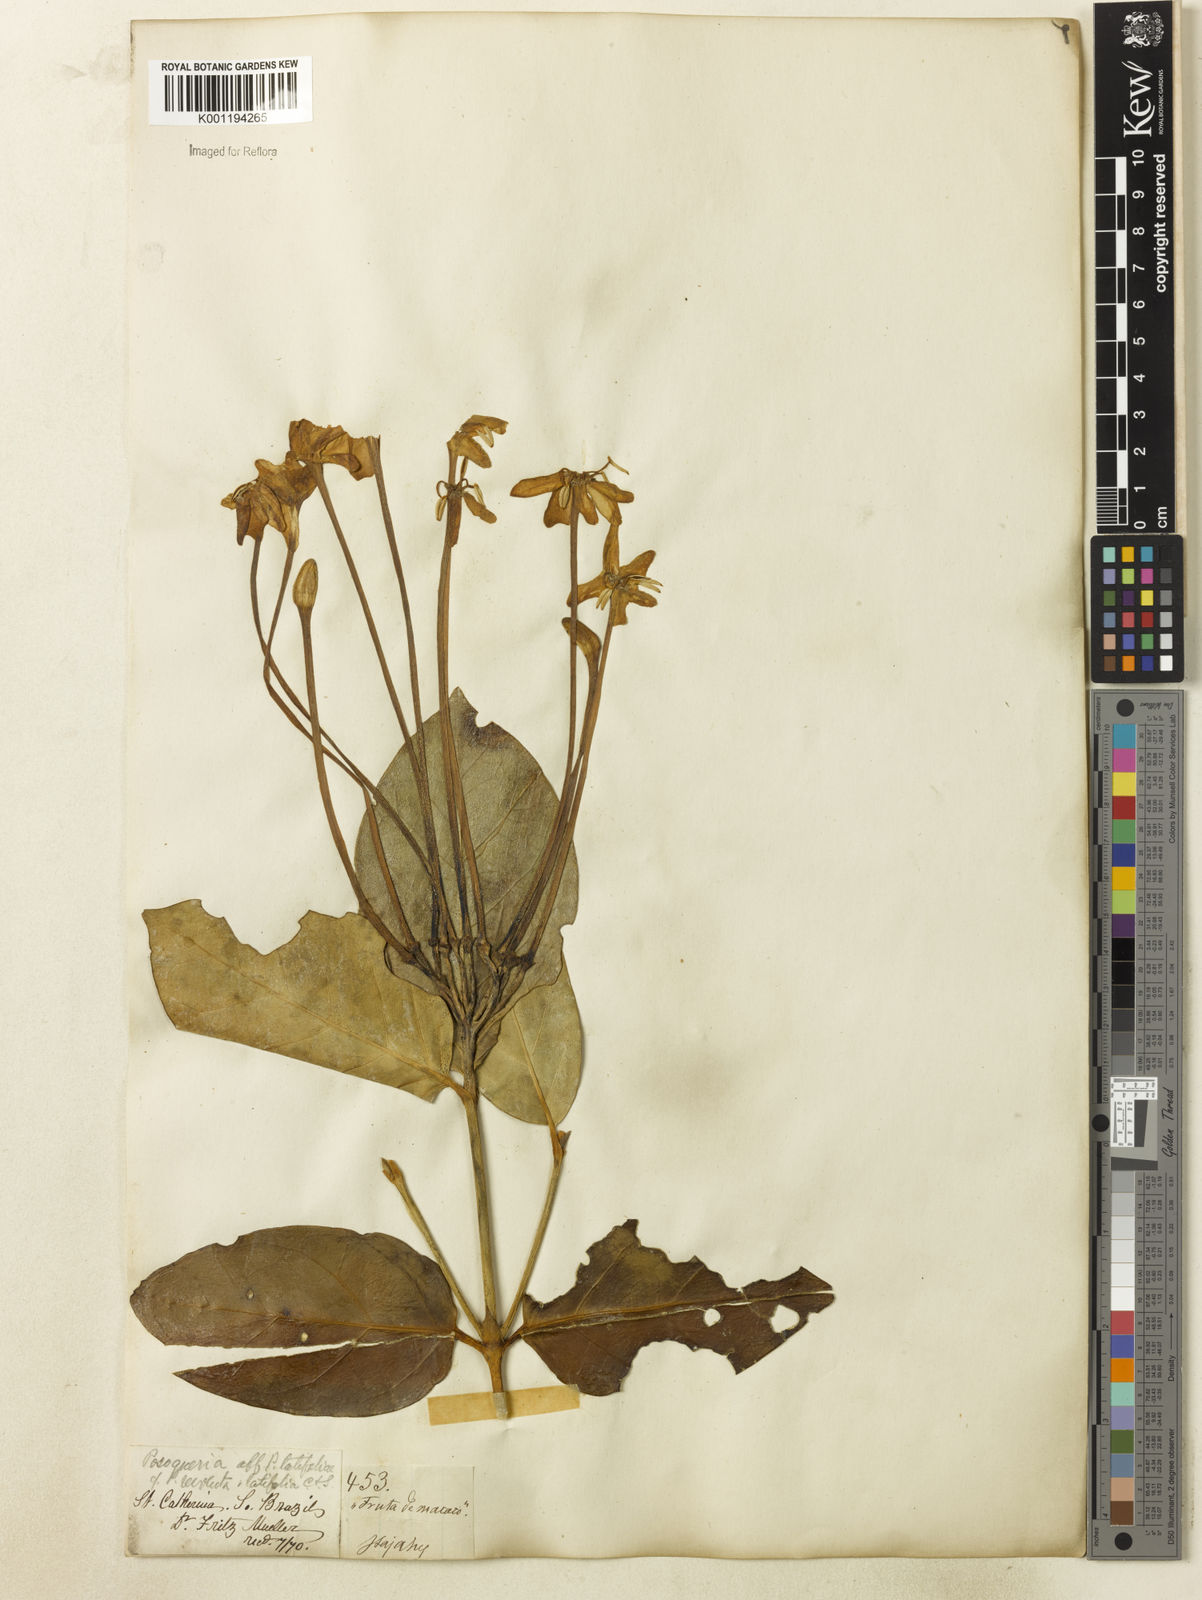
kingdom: Plantae
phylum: Tracheophyta
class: Magnoliopsida
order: Gentianales
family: Rubiaceae
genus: Posoqueria
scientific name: Posoqueria latifolia
